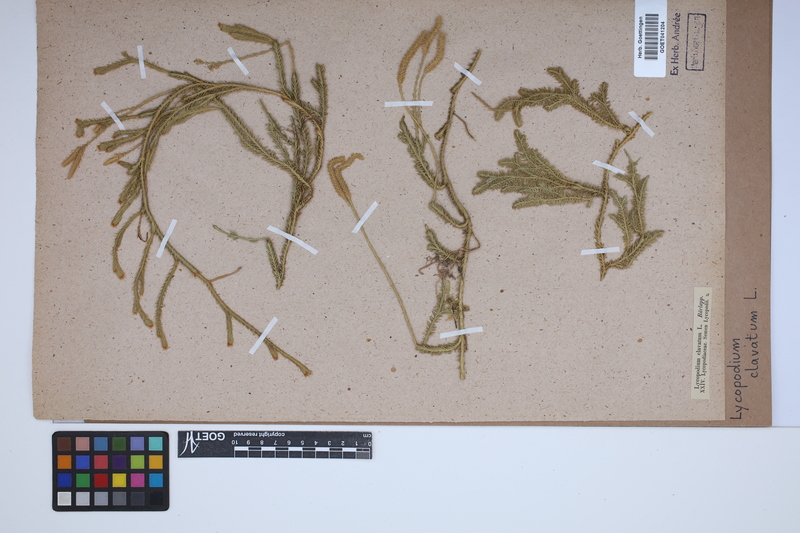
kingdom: Plantae
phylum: Tracheophyta
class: Lycopodiopsida
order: Lycopodiales
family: Lycopodiaceae
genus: Lycopodium
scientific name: Lycopodium clavatum
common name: Stag's-horn clubmoss
